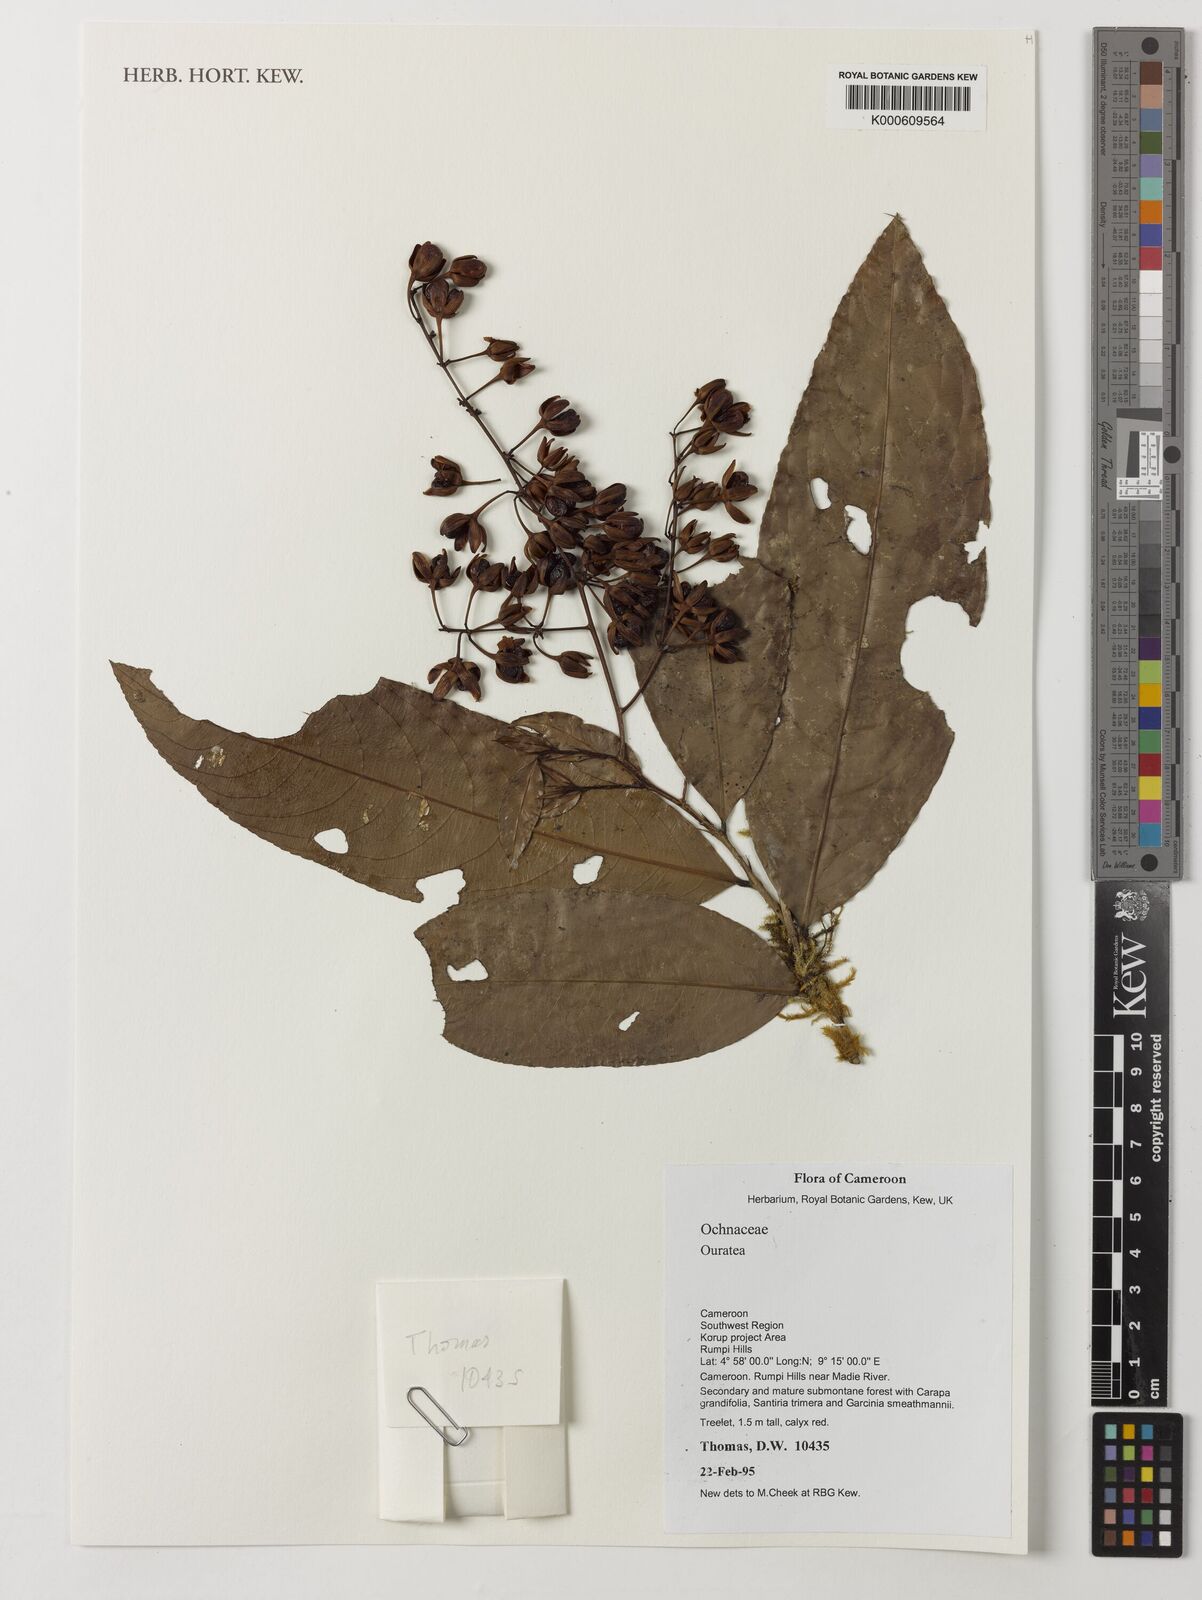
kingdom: Plantae
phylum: Tracheophyta
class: Magnoliopsida
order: Malpighiales
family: Ochnaceae
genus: Ouratea
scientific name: Ouratea
